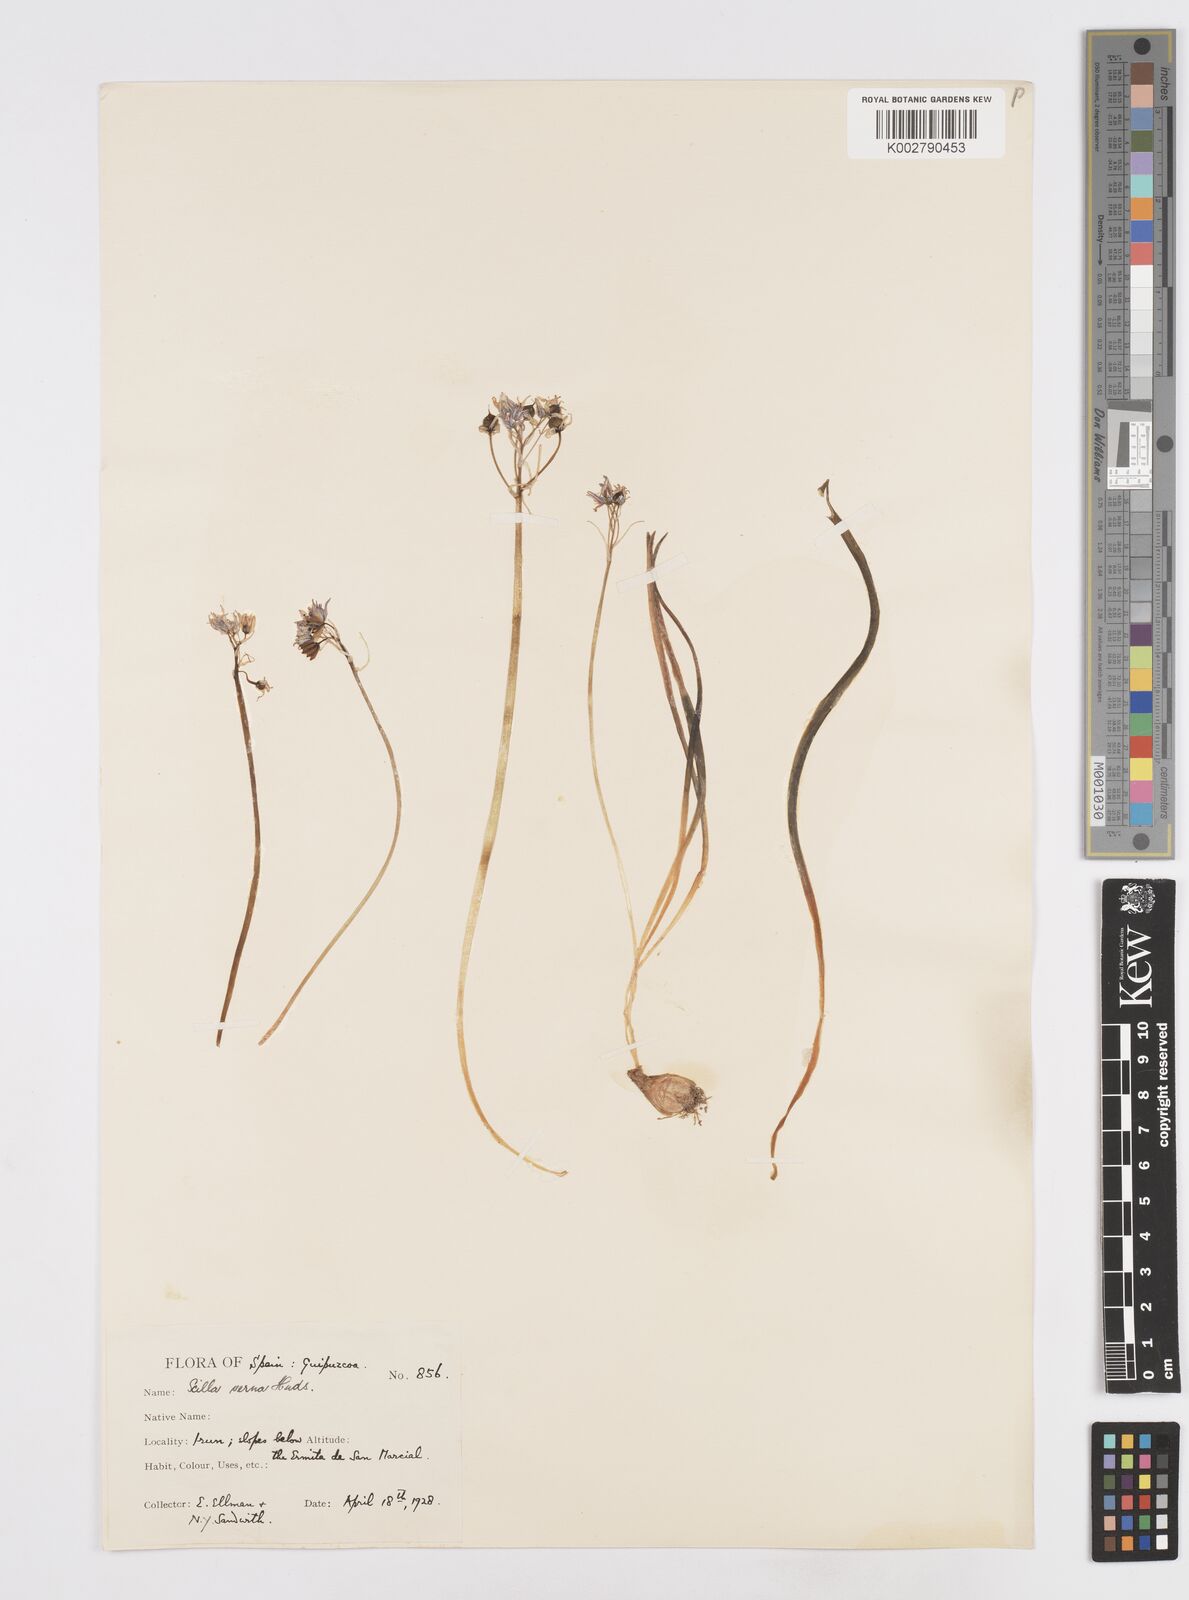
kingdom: Plantae
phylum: Tracheophyta
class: Liliopsida
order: Asparagales
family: Asparagaceae
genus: Scilla
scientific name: Scilla verna
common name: Spring squill
